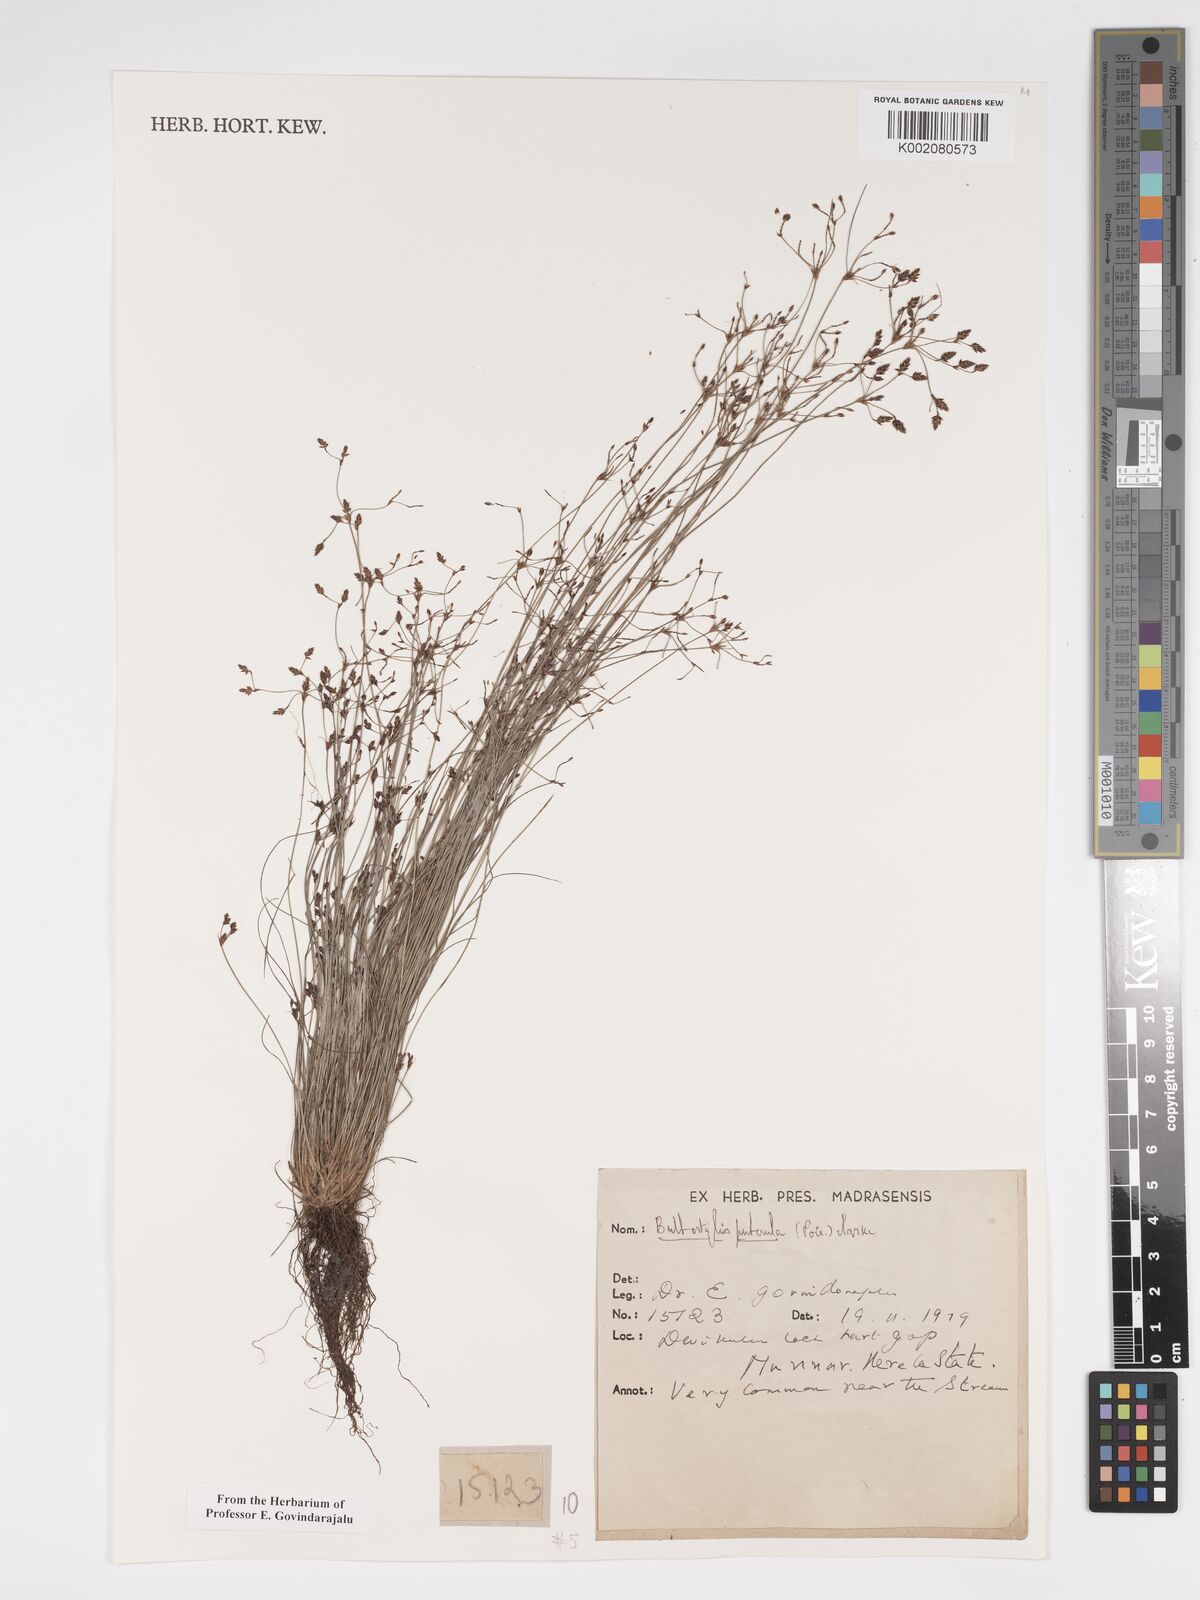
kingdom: Plantae
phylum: Tracheophyta
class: Liliopsida
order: Poales
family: Cyperaceae
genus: Bulbostylis
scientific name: Bulbostylis thouarsii
